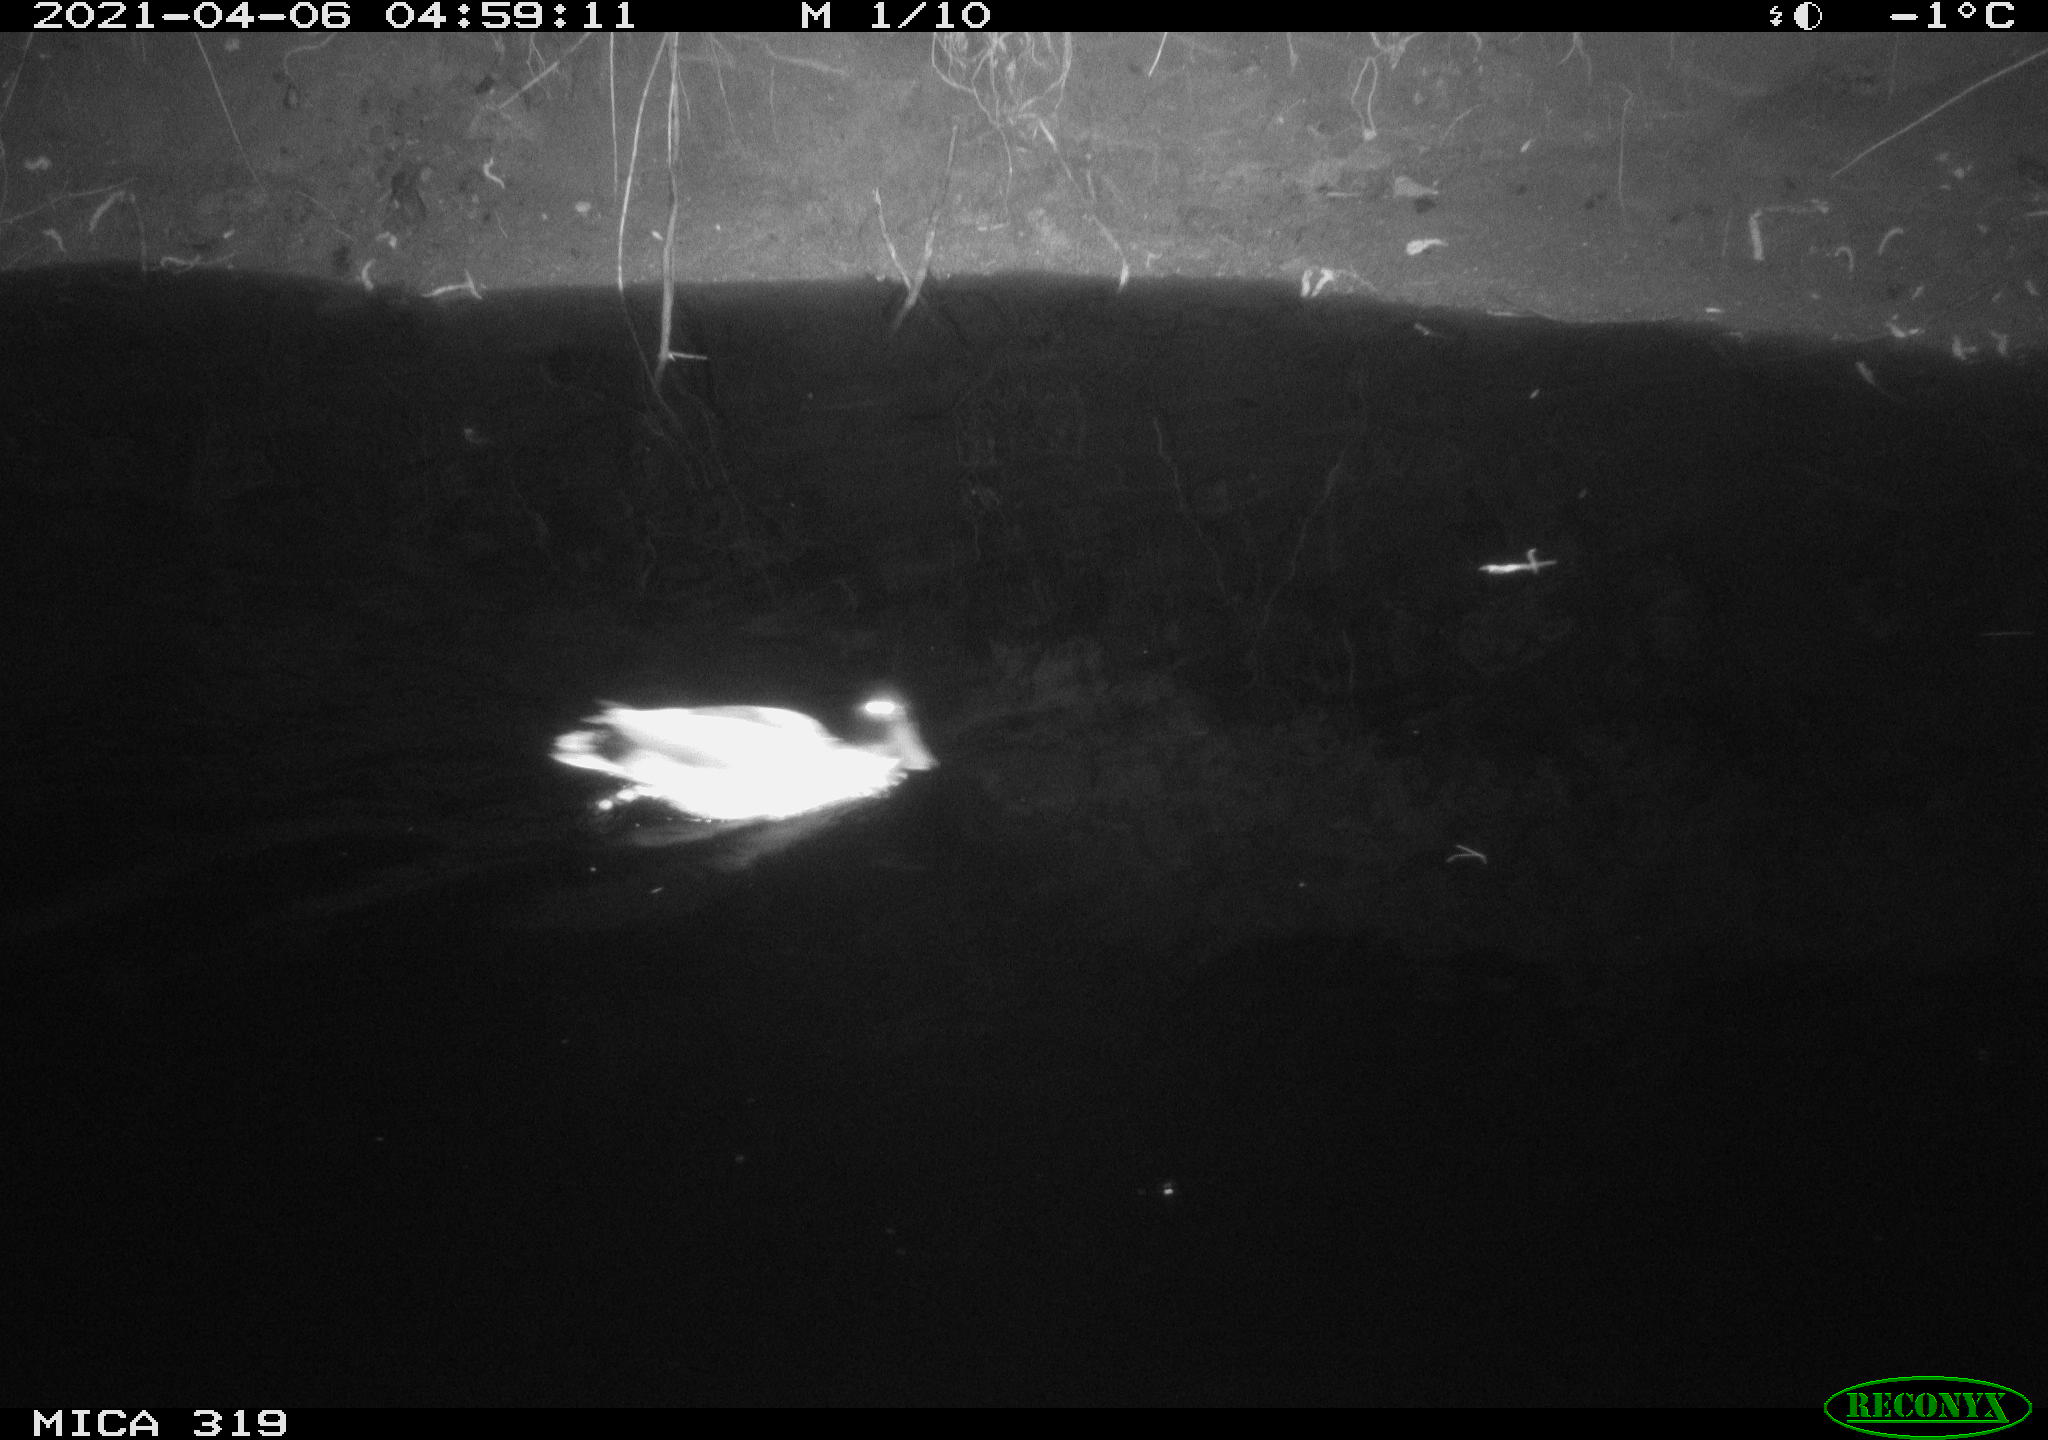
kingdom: Animalia
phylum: Chordata
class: Aves
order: Anseriformes
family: Anatidae
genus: Anas
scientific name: Anas platyrhynchos
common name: Mallard
